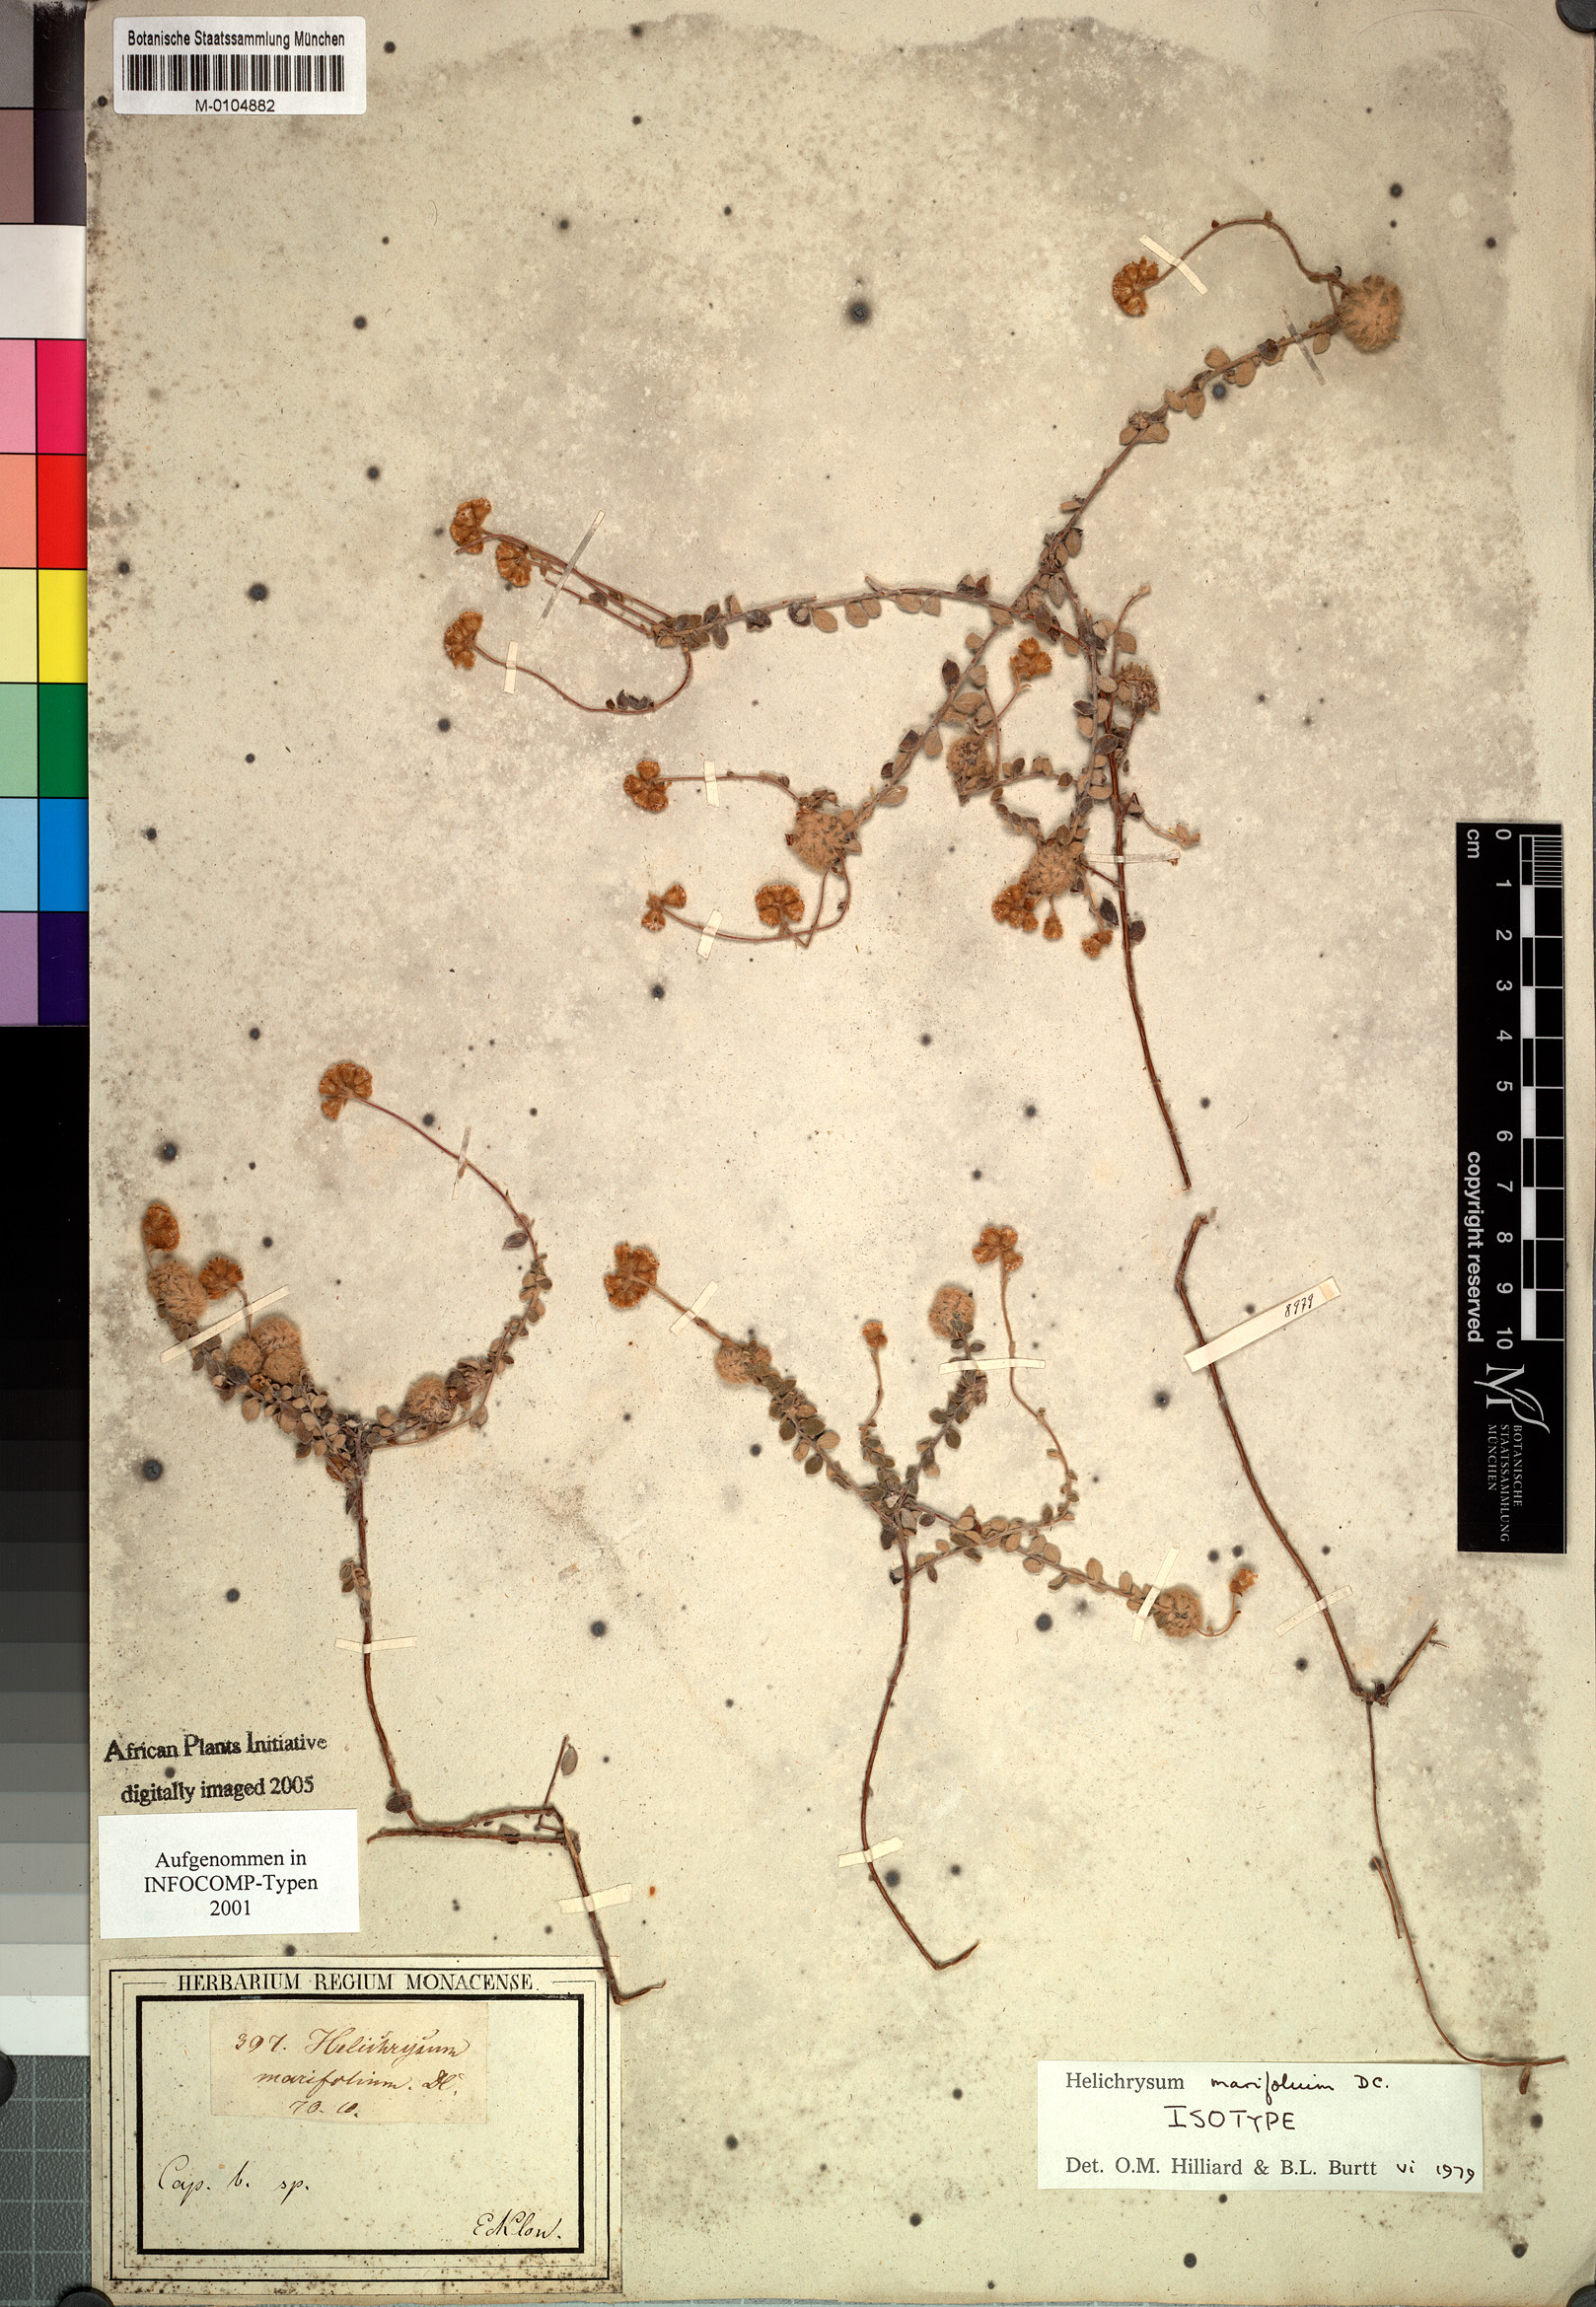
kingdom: Plantae
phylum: Tracheophyta
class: Magnoliopsida
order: Asterales
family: Asteraceae
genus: Helichrysum
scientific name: Helichrysum marifolium
